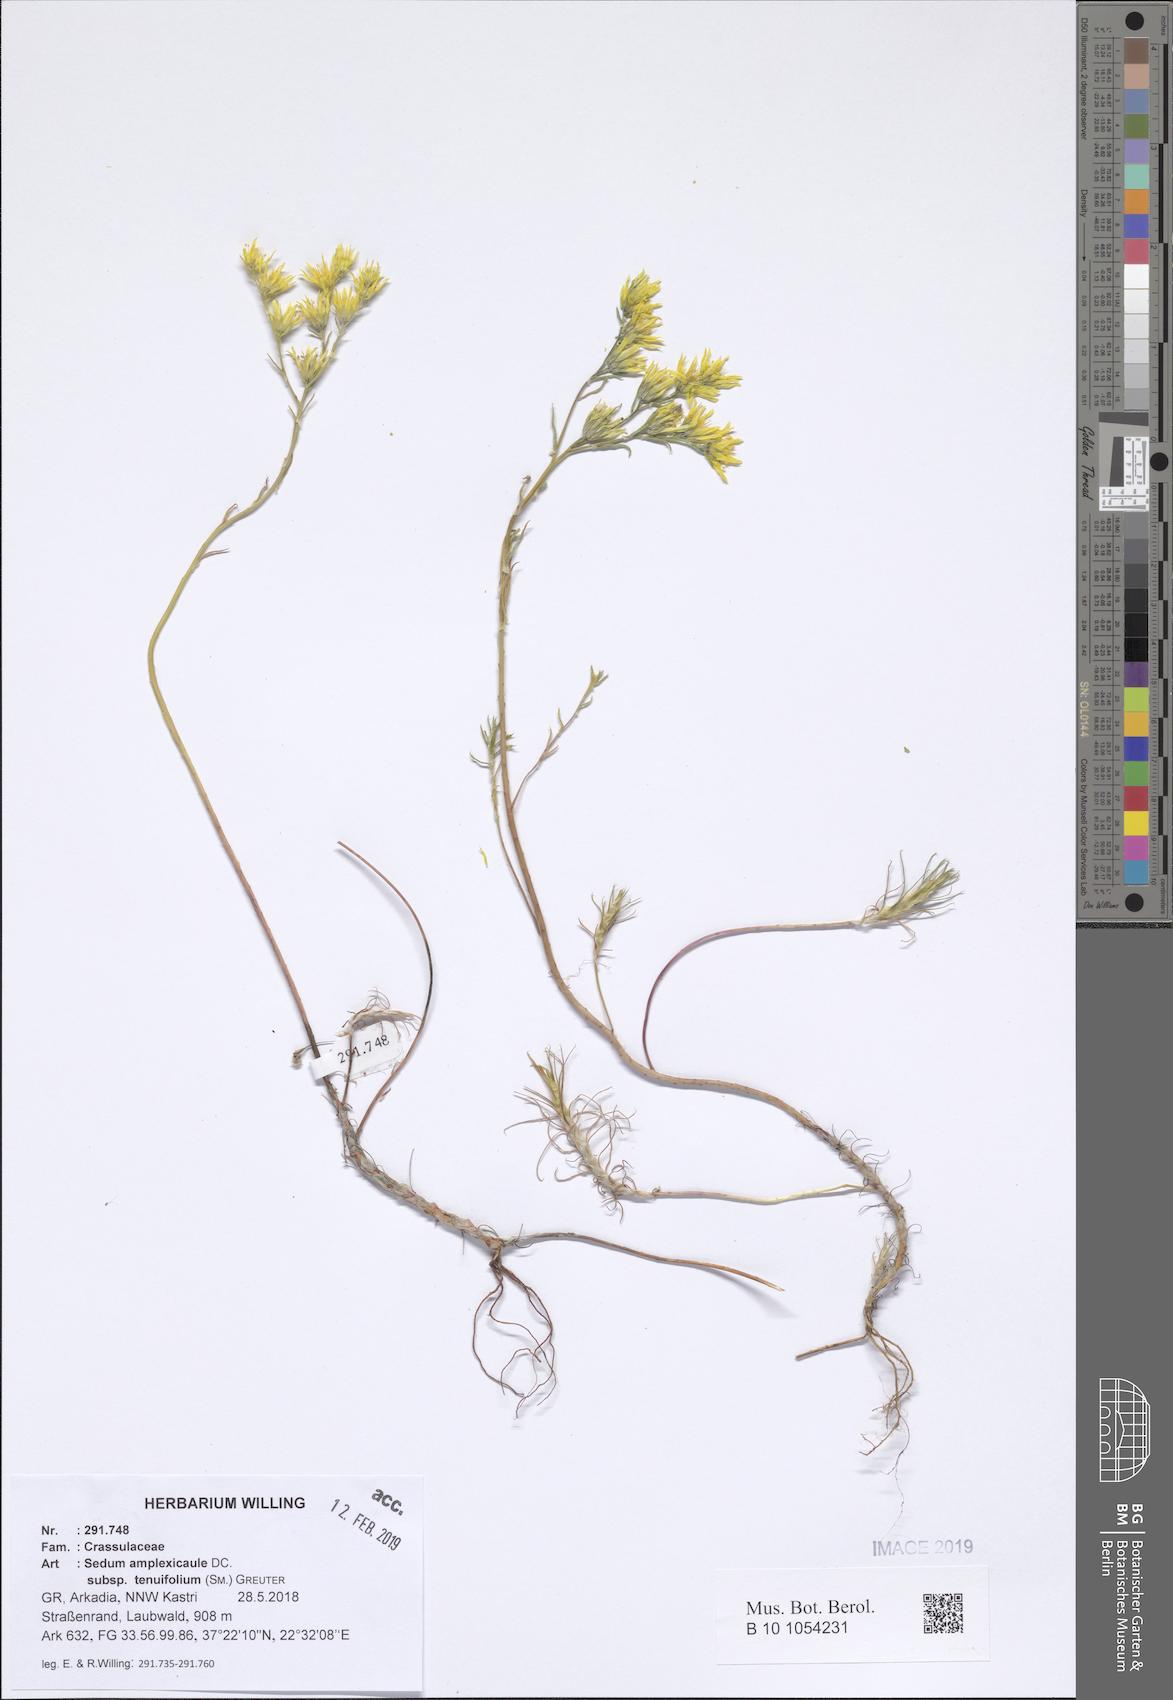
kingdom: Plantae
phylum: Tracheophyta
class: Magnoliopsida
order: Saxifragales
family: Crassulaceae
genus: Petrosedum
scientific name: Petrosedum tenuifolium
